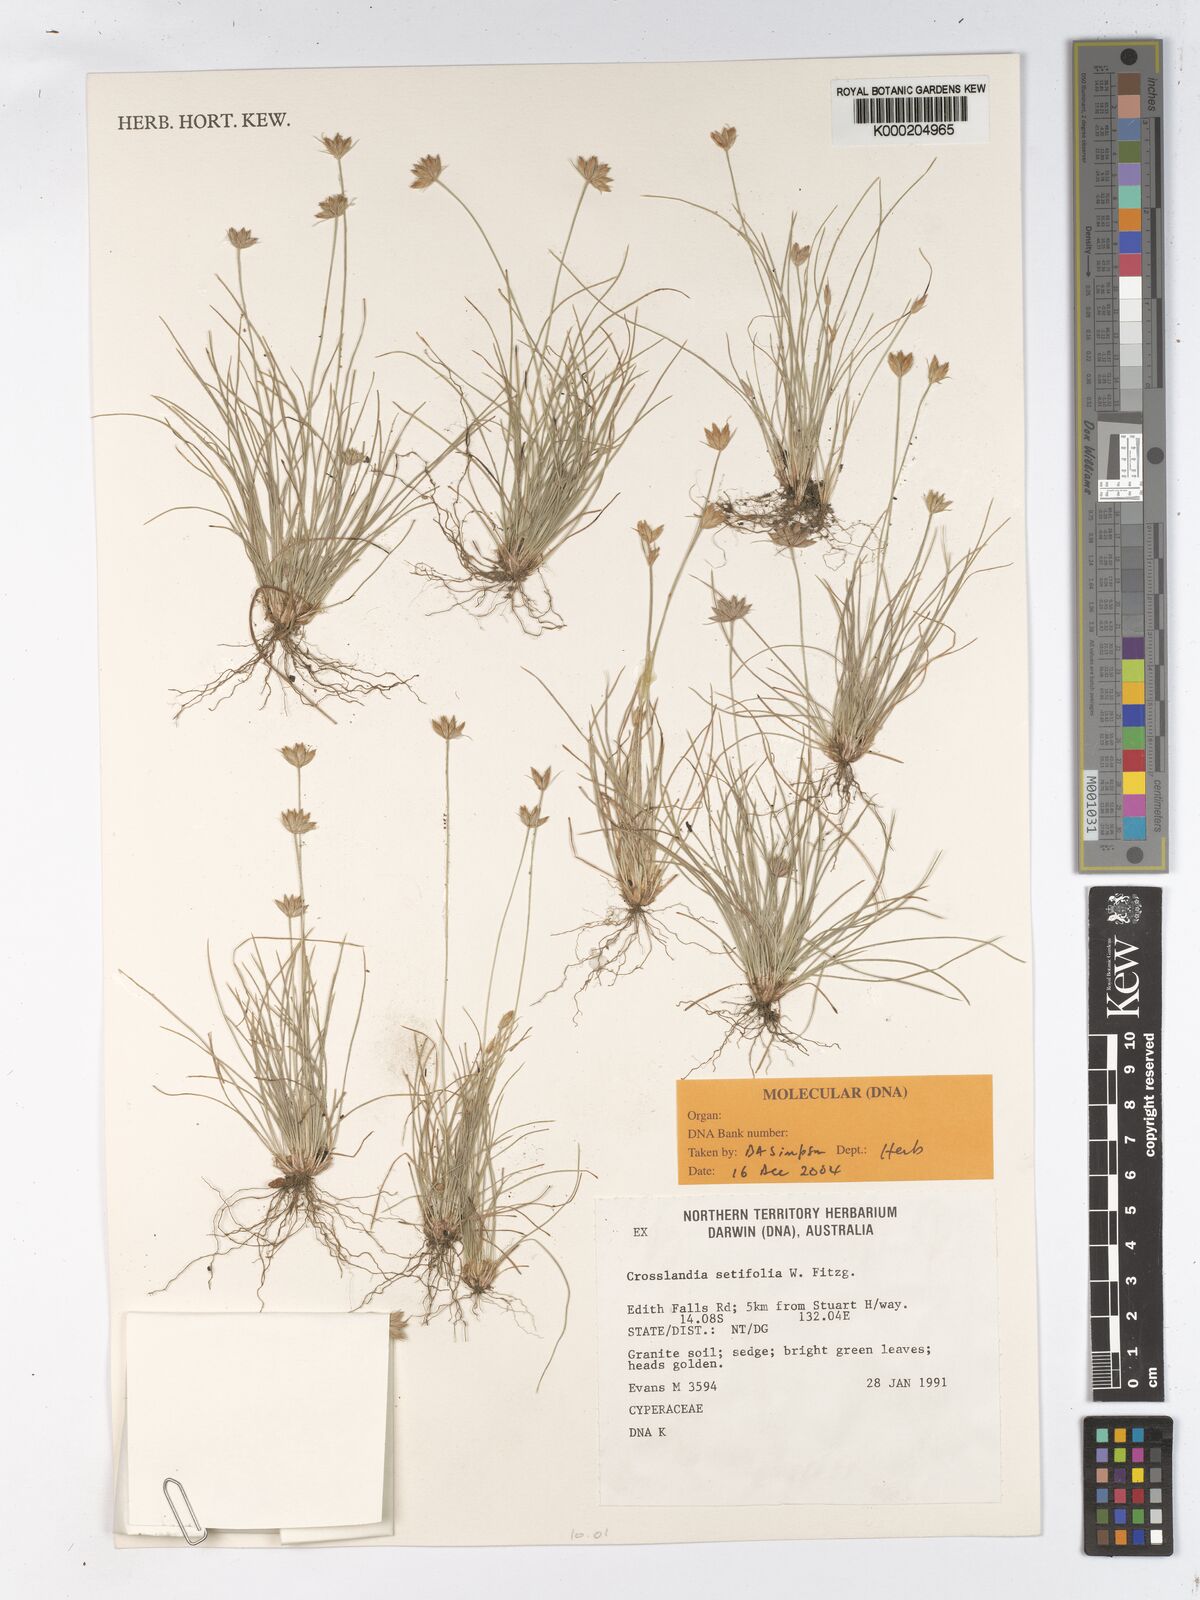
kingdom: Plantae
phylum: Tracheophyta
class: Liliopsida
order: Poales
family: Cyperaceae
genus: Fimbristylis
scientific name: Fimbristylis crosslandii
